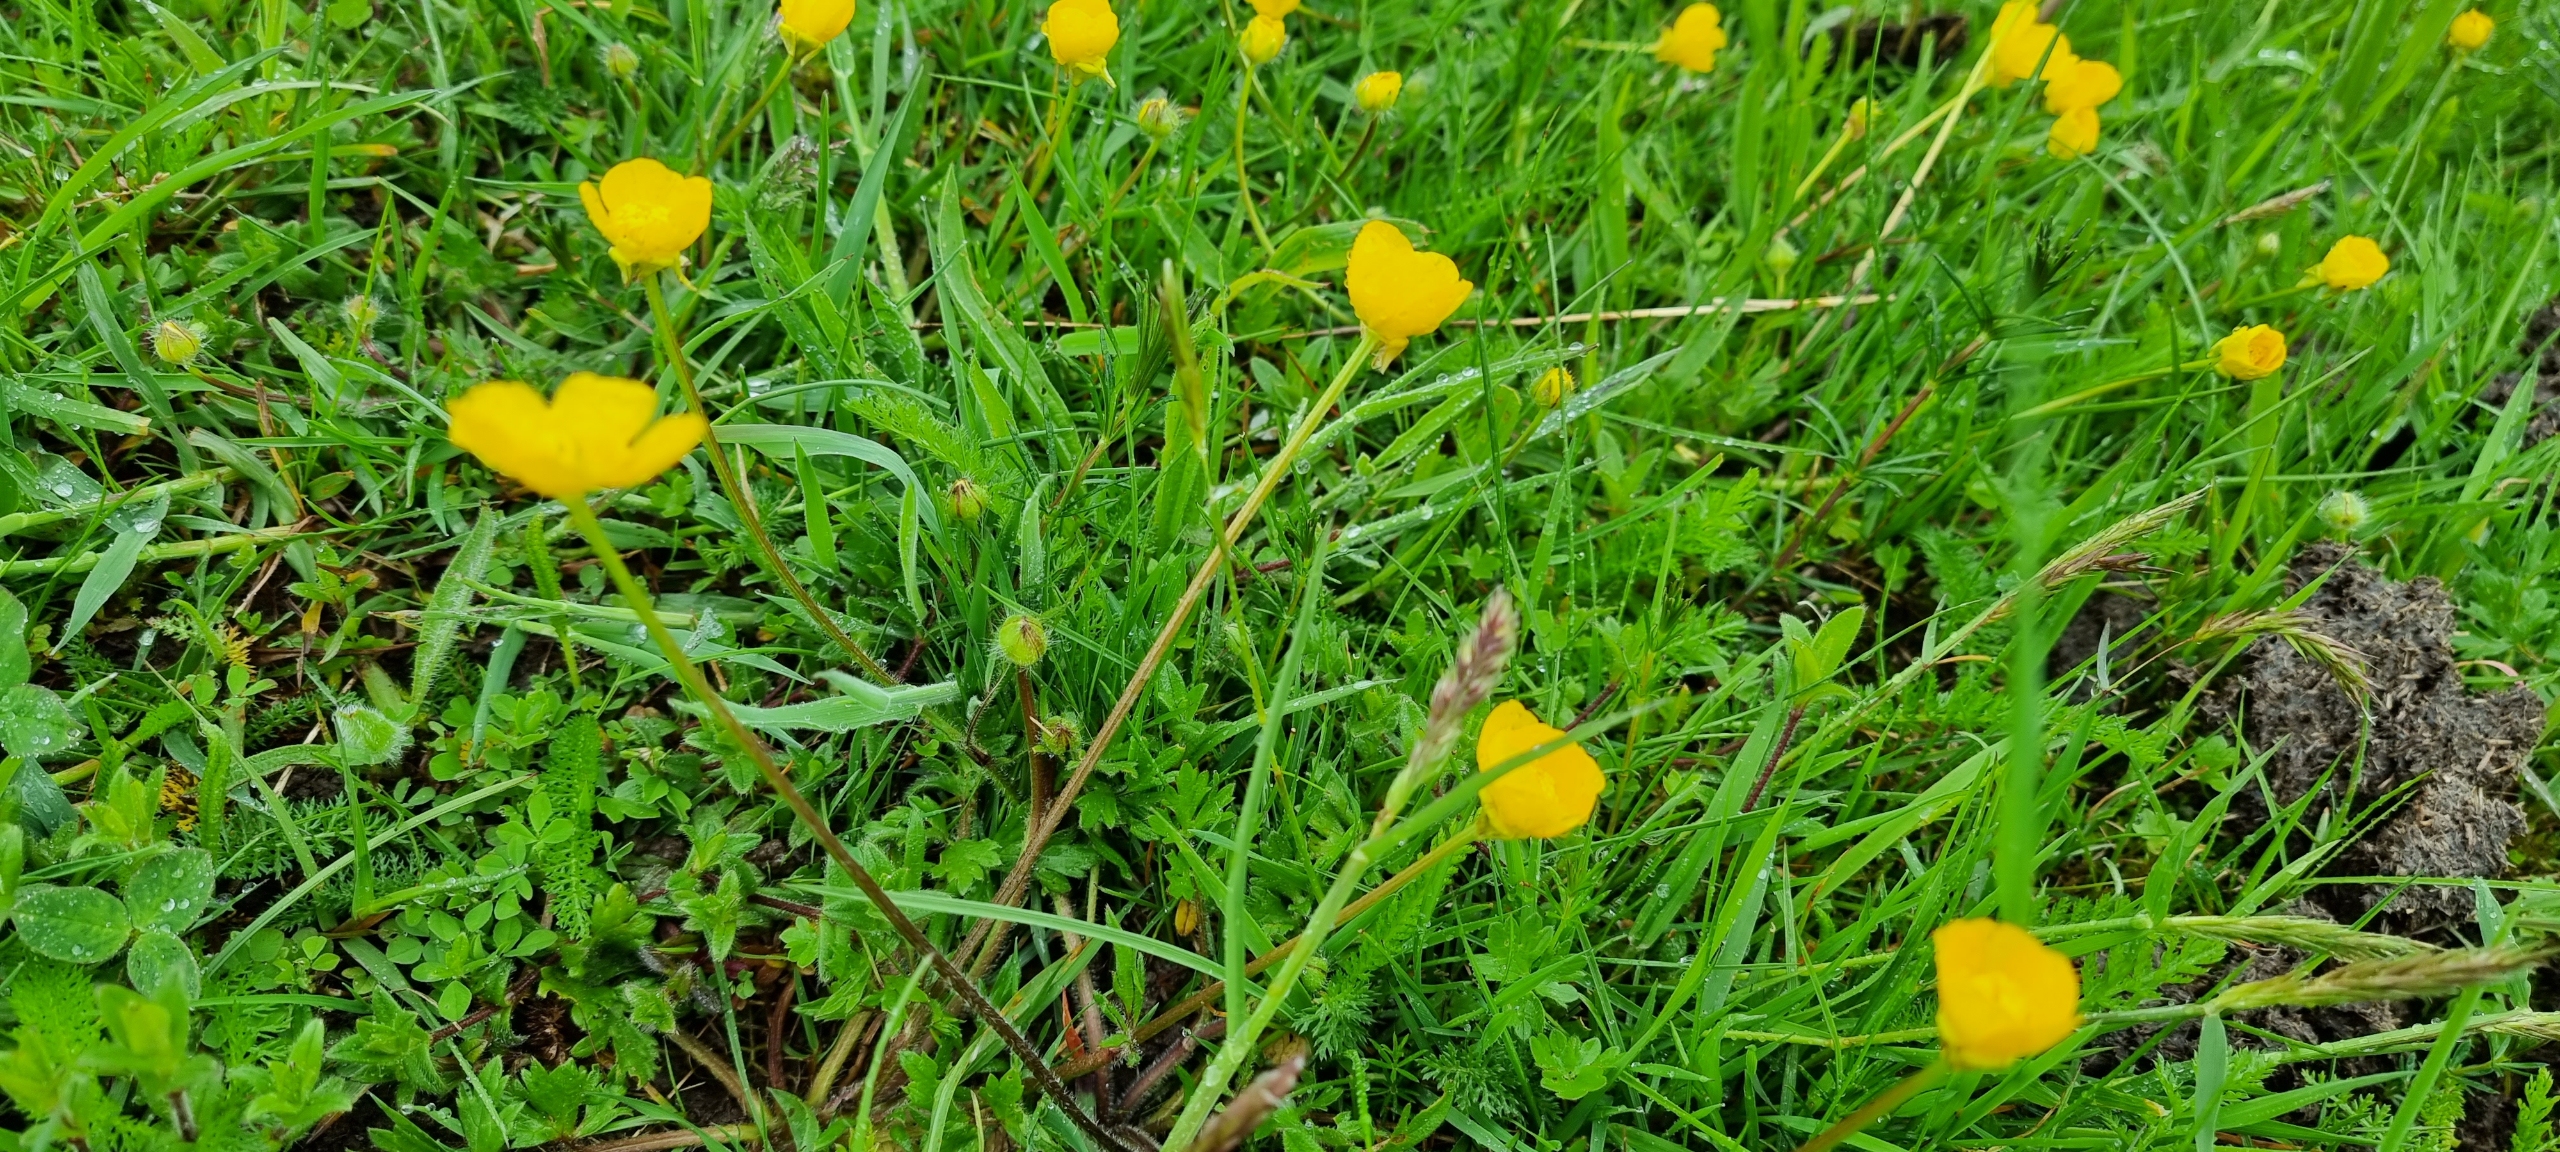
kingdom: Plantae
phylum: Tracheophyta
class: Magnoliopsida
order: Ranunculales
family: Ranunculaceae
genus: Ranunculus
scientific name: Ranunculus bulbosus
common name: Knold-ranunkel
